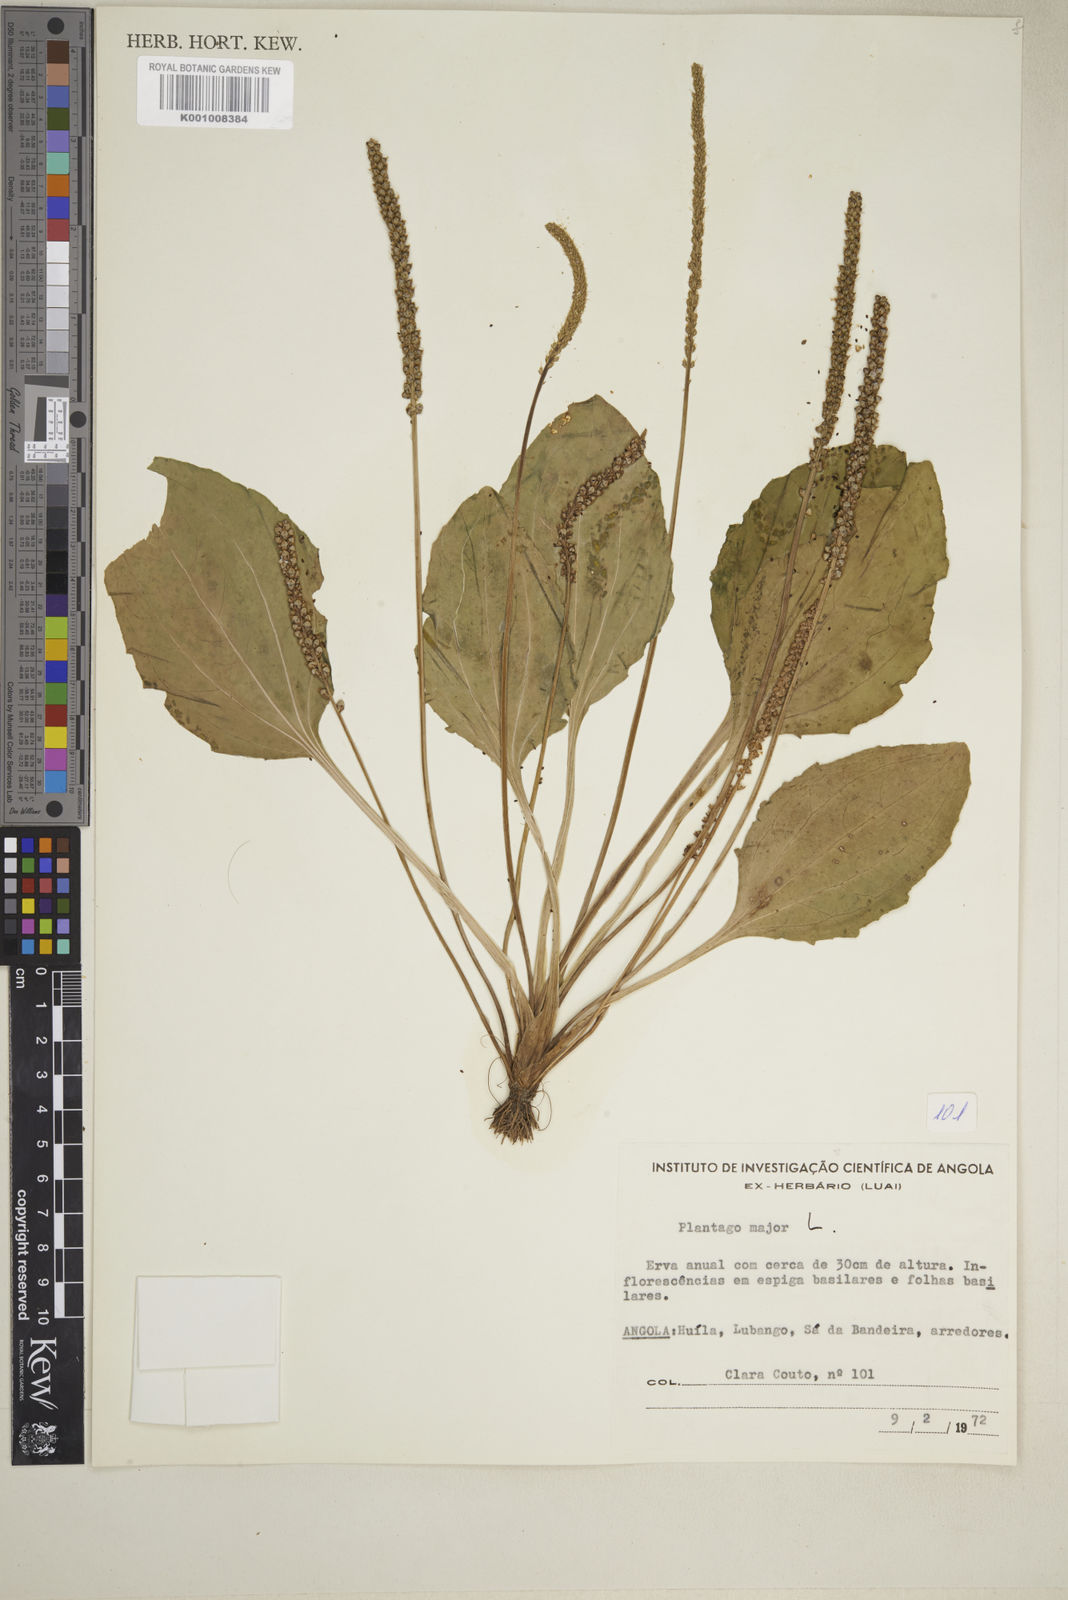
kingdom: Plantae
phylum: Tracheophyta
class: Magnoliopsida
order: Lamiales
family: Plantaginaceae
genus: Plantago
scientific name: Plantago major
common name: Common plantain
